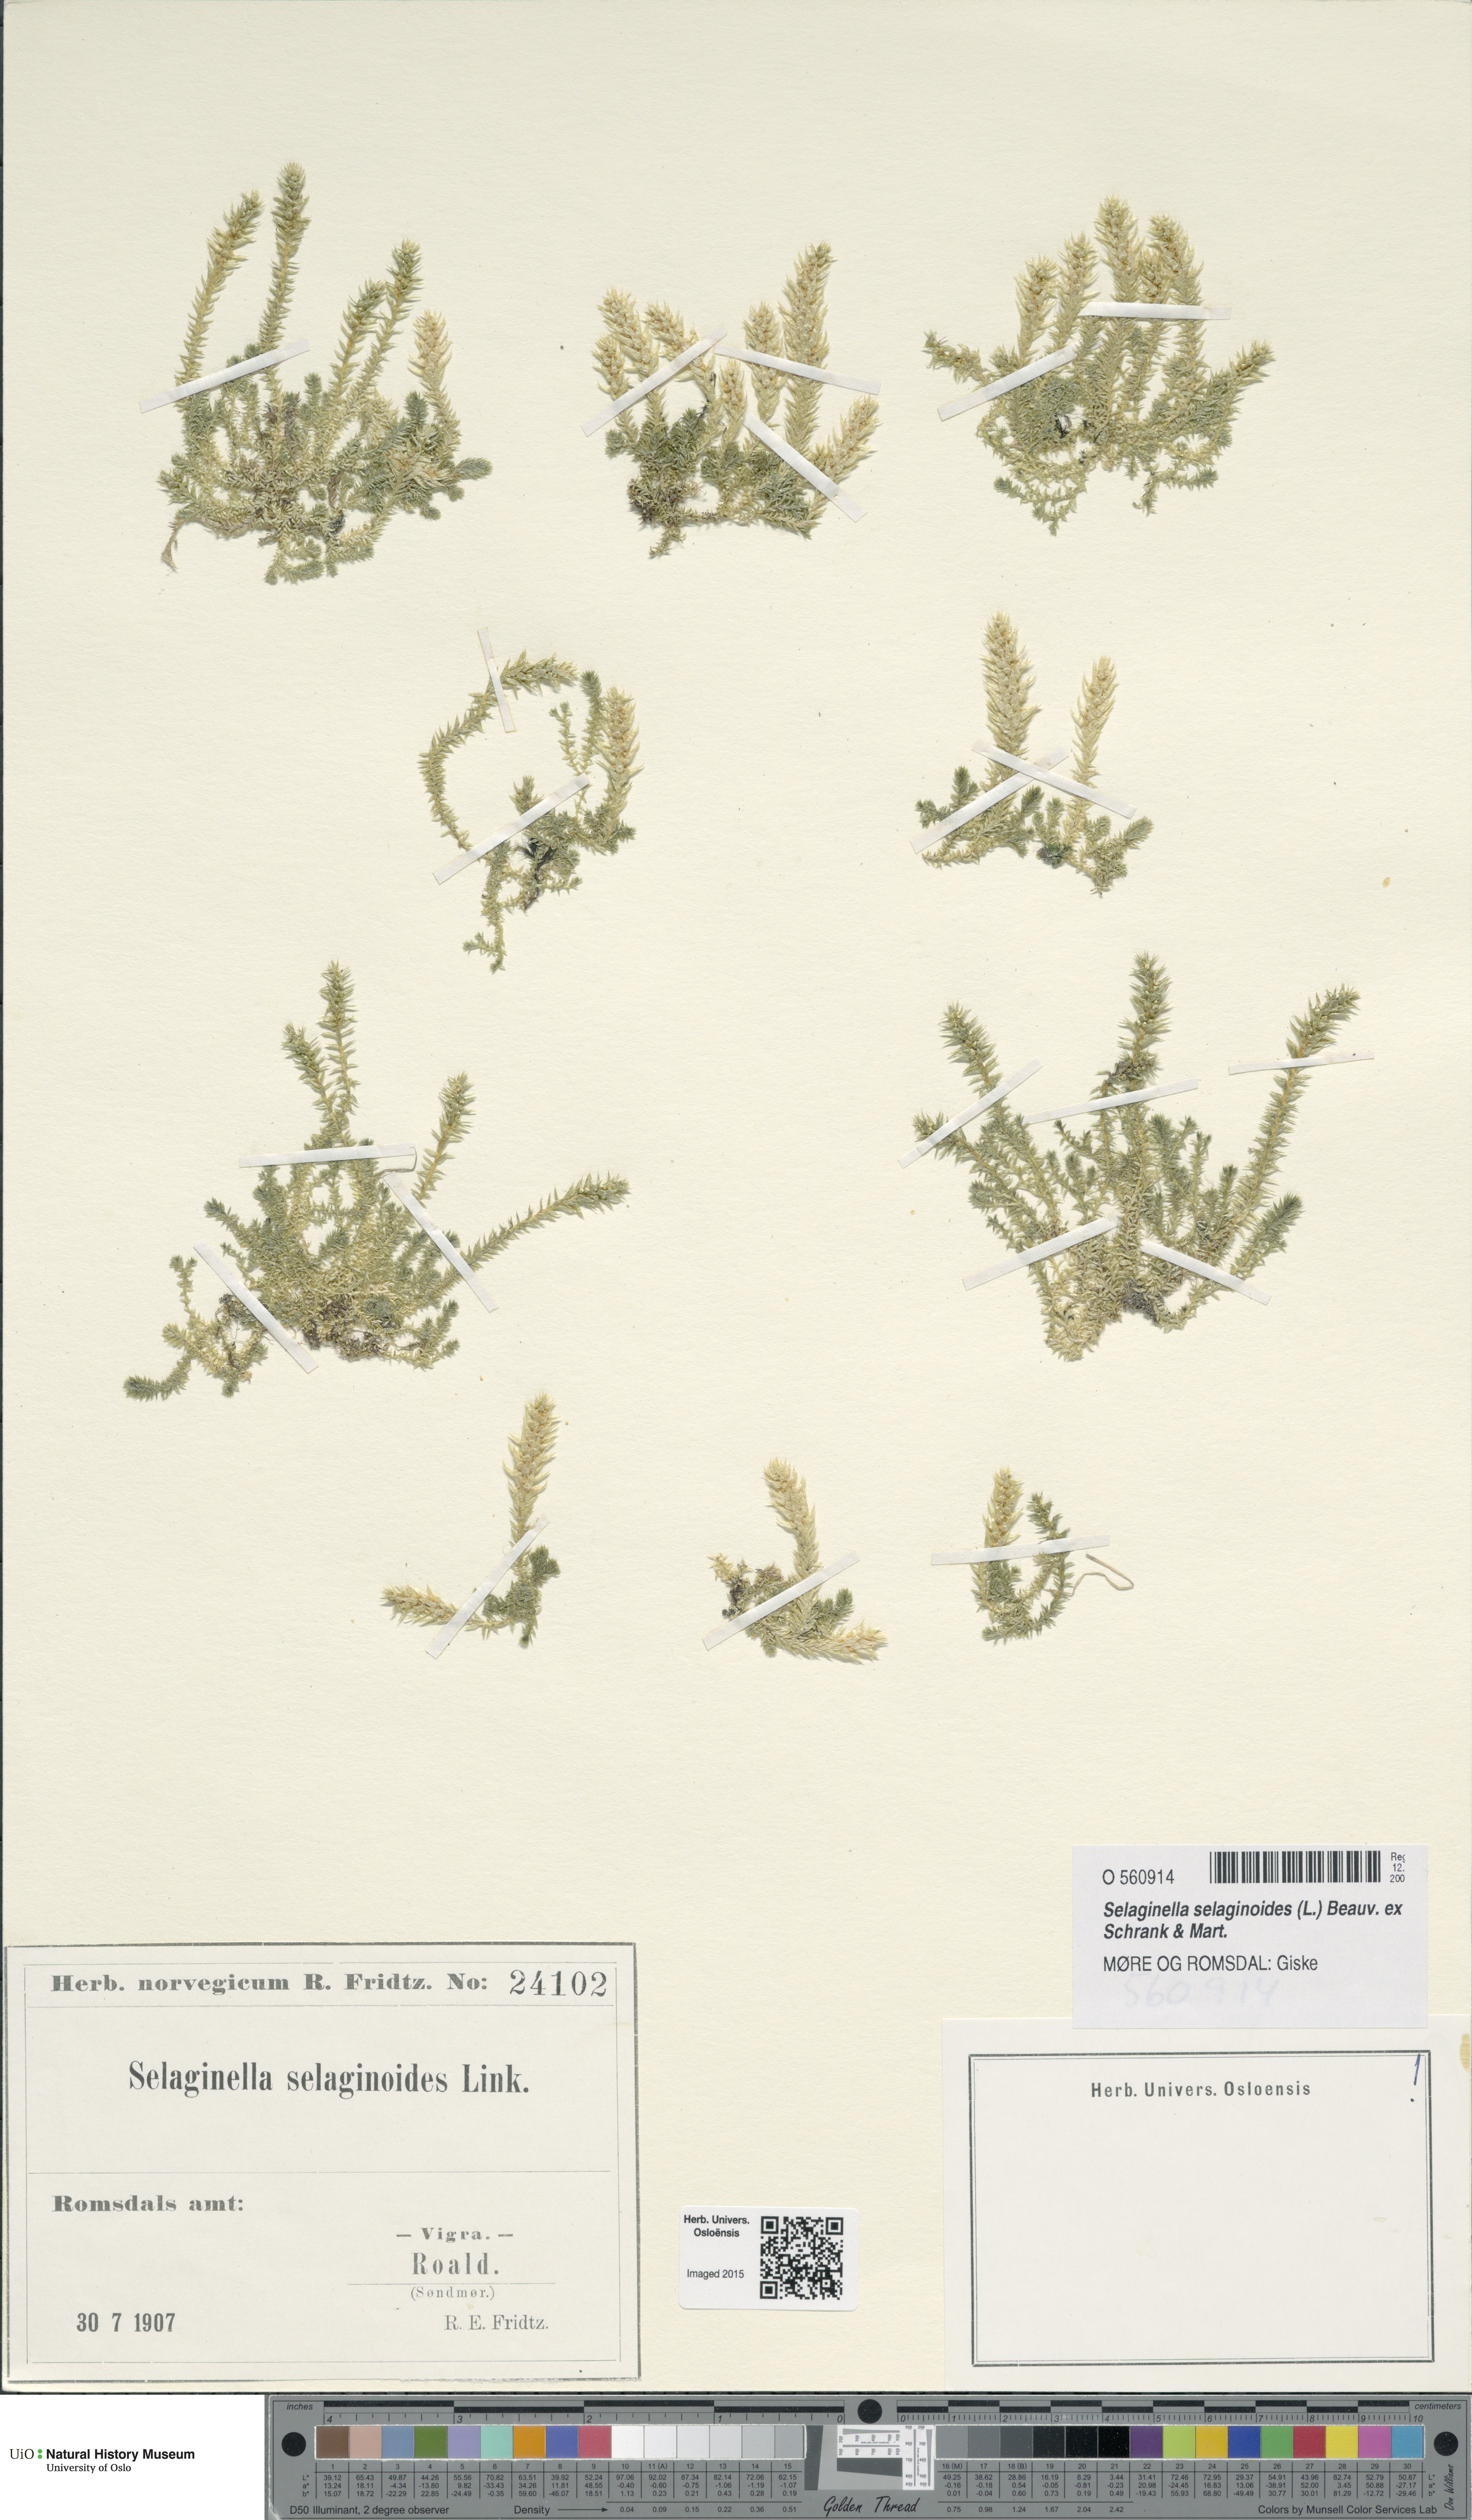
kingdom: Plantae
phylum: Tracheophyta
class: Lycopodiopsida
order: Selaginellales
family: Selaginellaceae
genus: Selaginella
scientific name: Selaginella selaginoides
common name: Prickly mountain-moss
